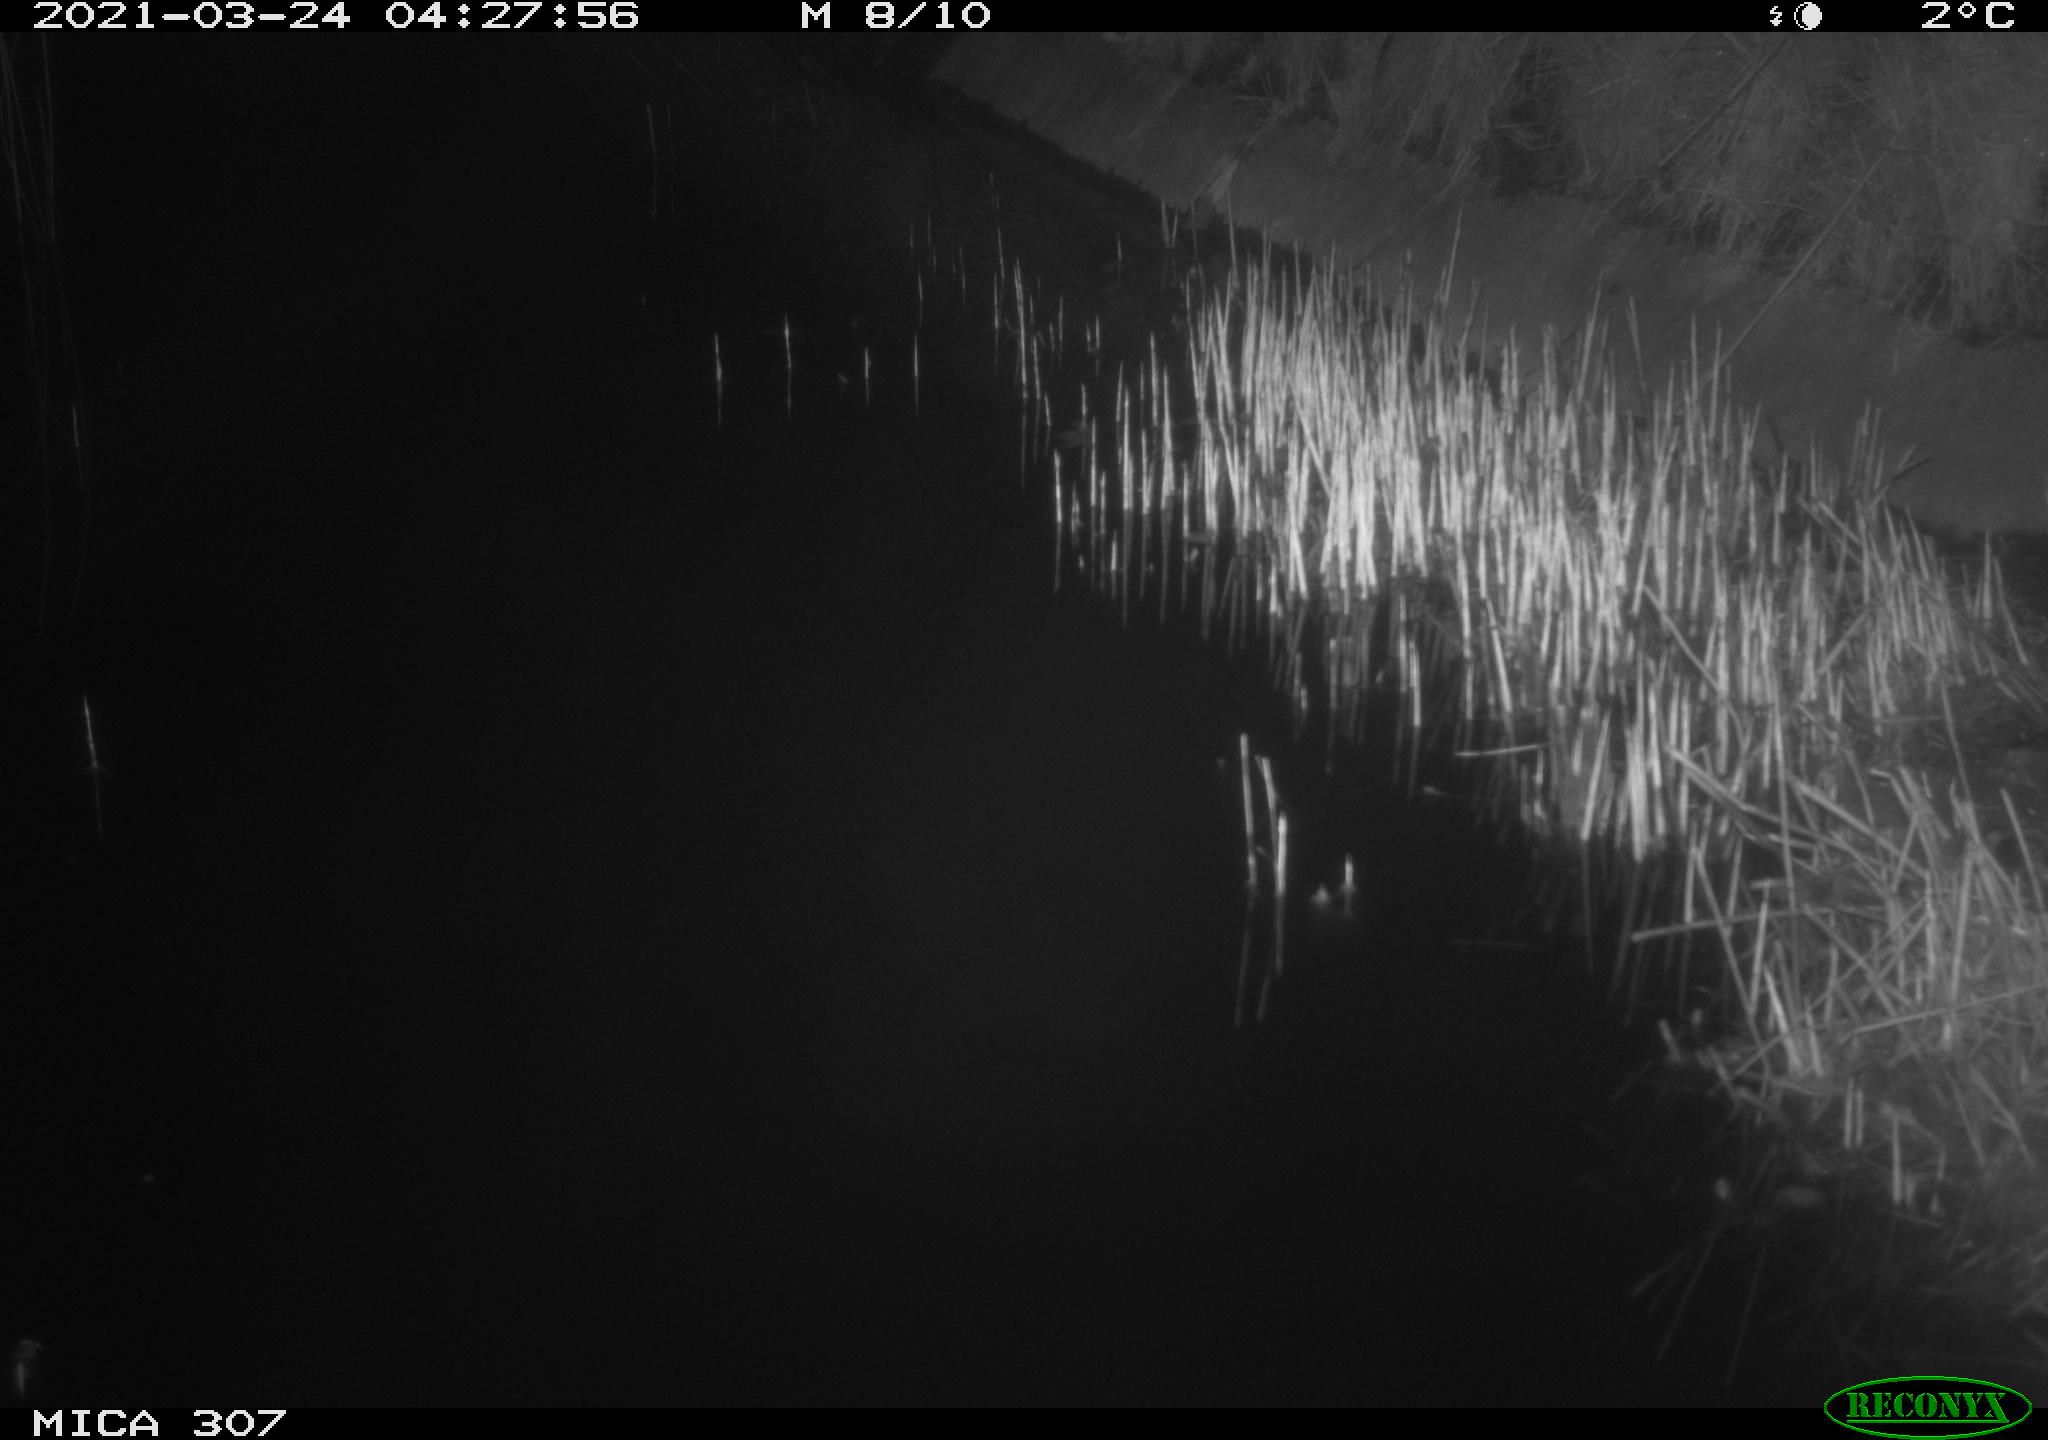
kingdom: Animalia
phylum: Chordata
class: Mammalia
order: Rodentia
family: Muridae
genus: Rattus
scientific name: Rattus norvegicus
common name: Brown rat
